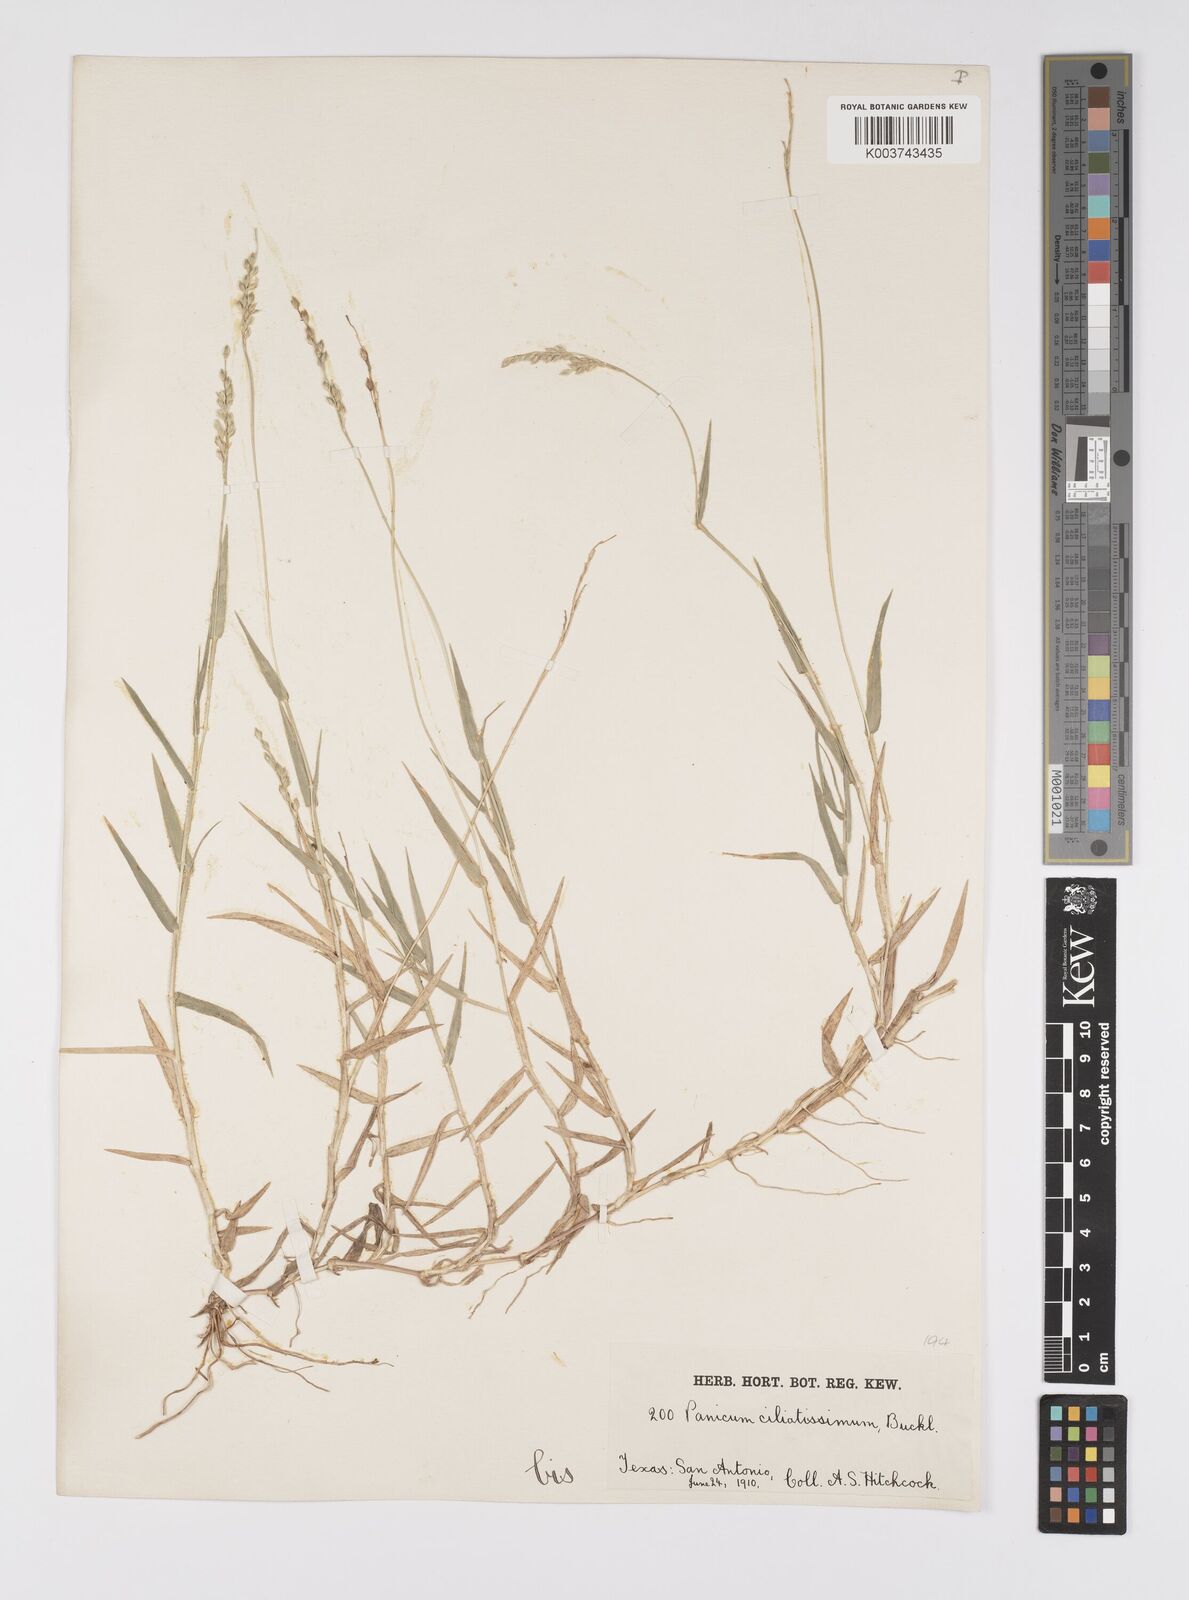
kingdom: Plantae
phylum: Tracheophyta
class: Liliopsida
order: Poales
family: Poaceae
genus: Urochloa
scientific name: Urochloa ciliatissima
